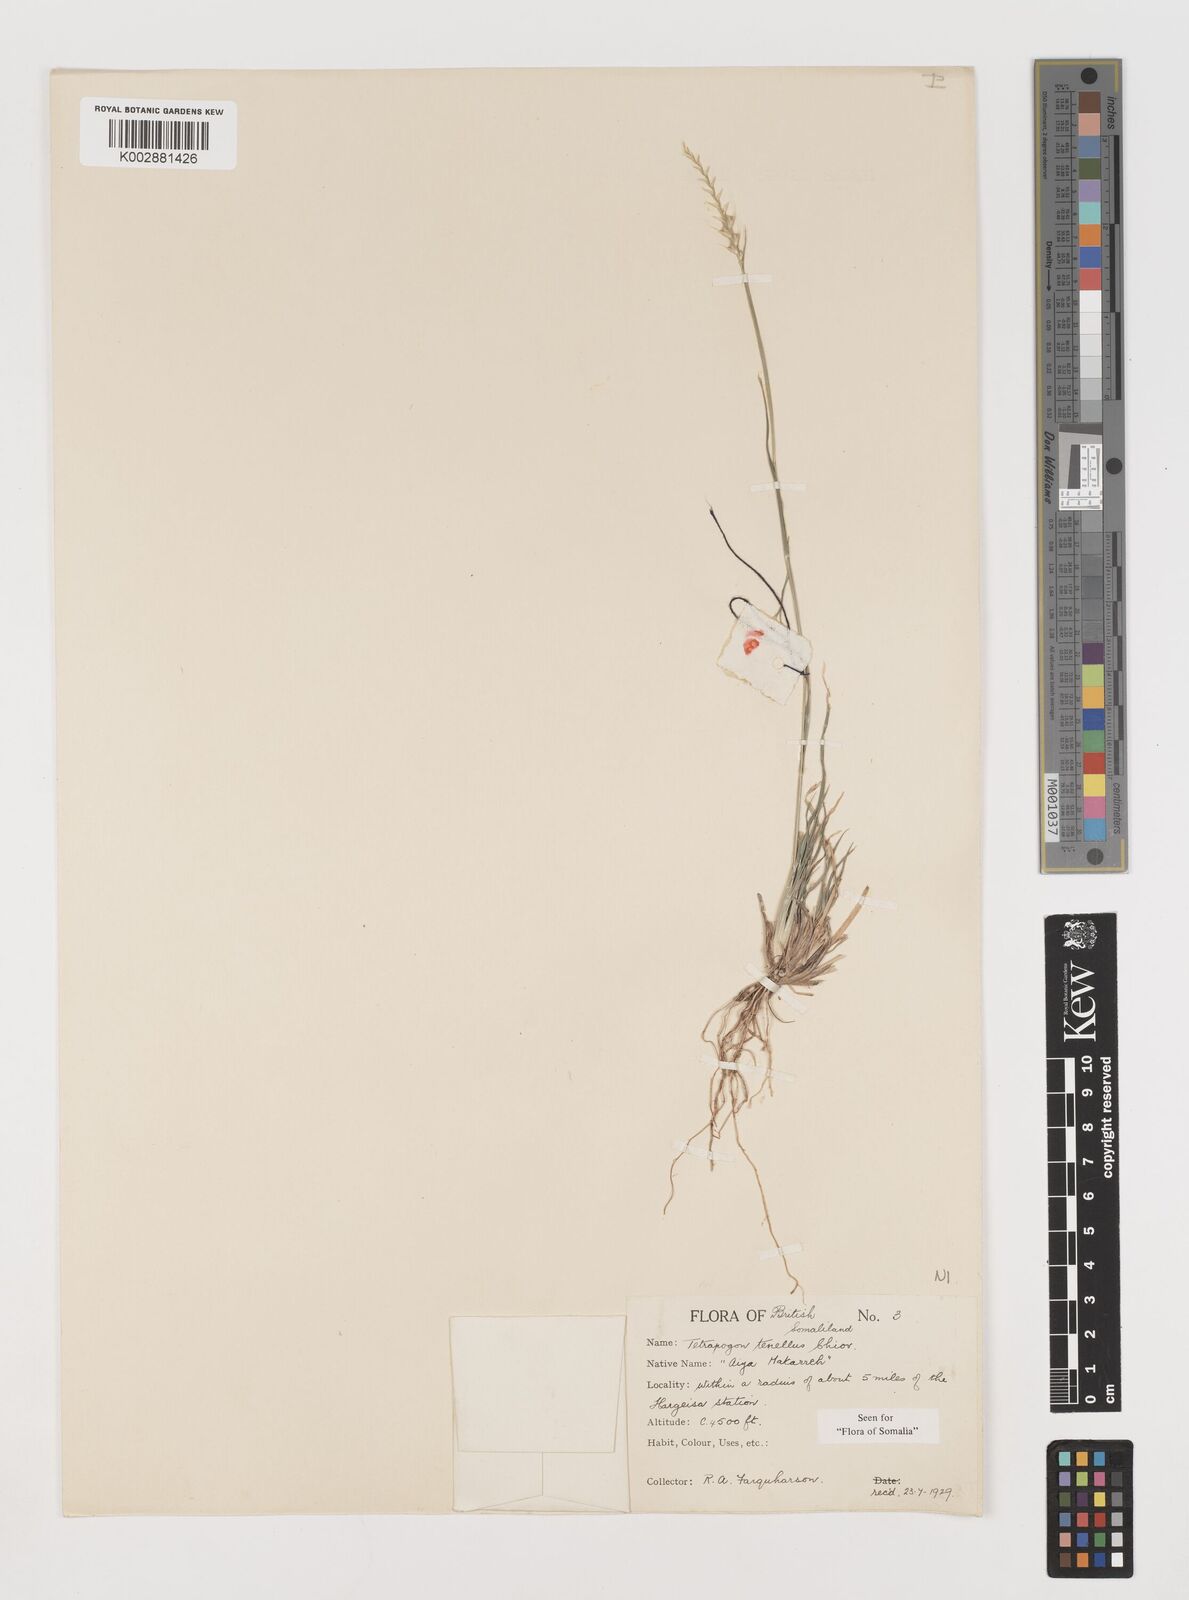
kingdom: Plantae
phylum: Tracheophyta
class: Liliopsida
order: Poales
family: Poaceae
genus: Tetrapogon
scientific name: Tetrapogon tenellus
